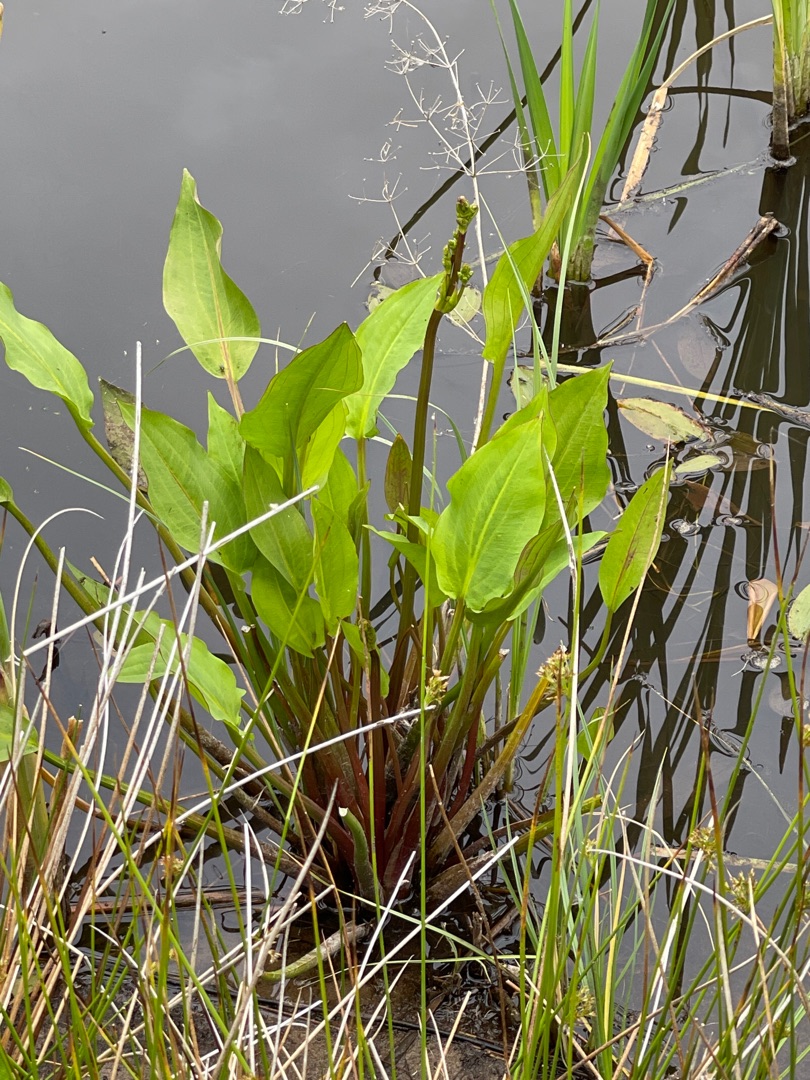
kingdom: Plantae
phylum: Tracheophyta
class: Liliopsida
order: Alismatales
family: Alismataceae
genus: Alisma
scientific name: Alisma plantago-aquatica
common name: Vejbred-skeblad
